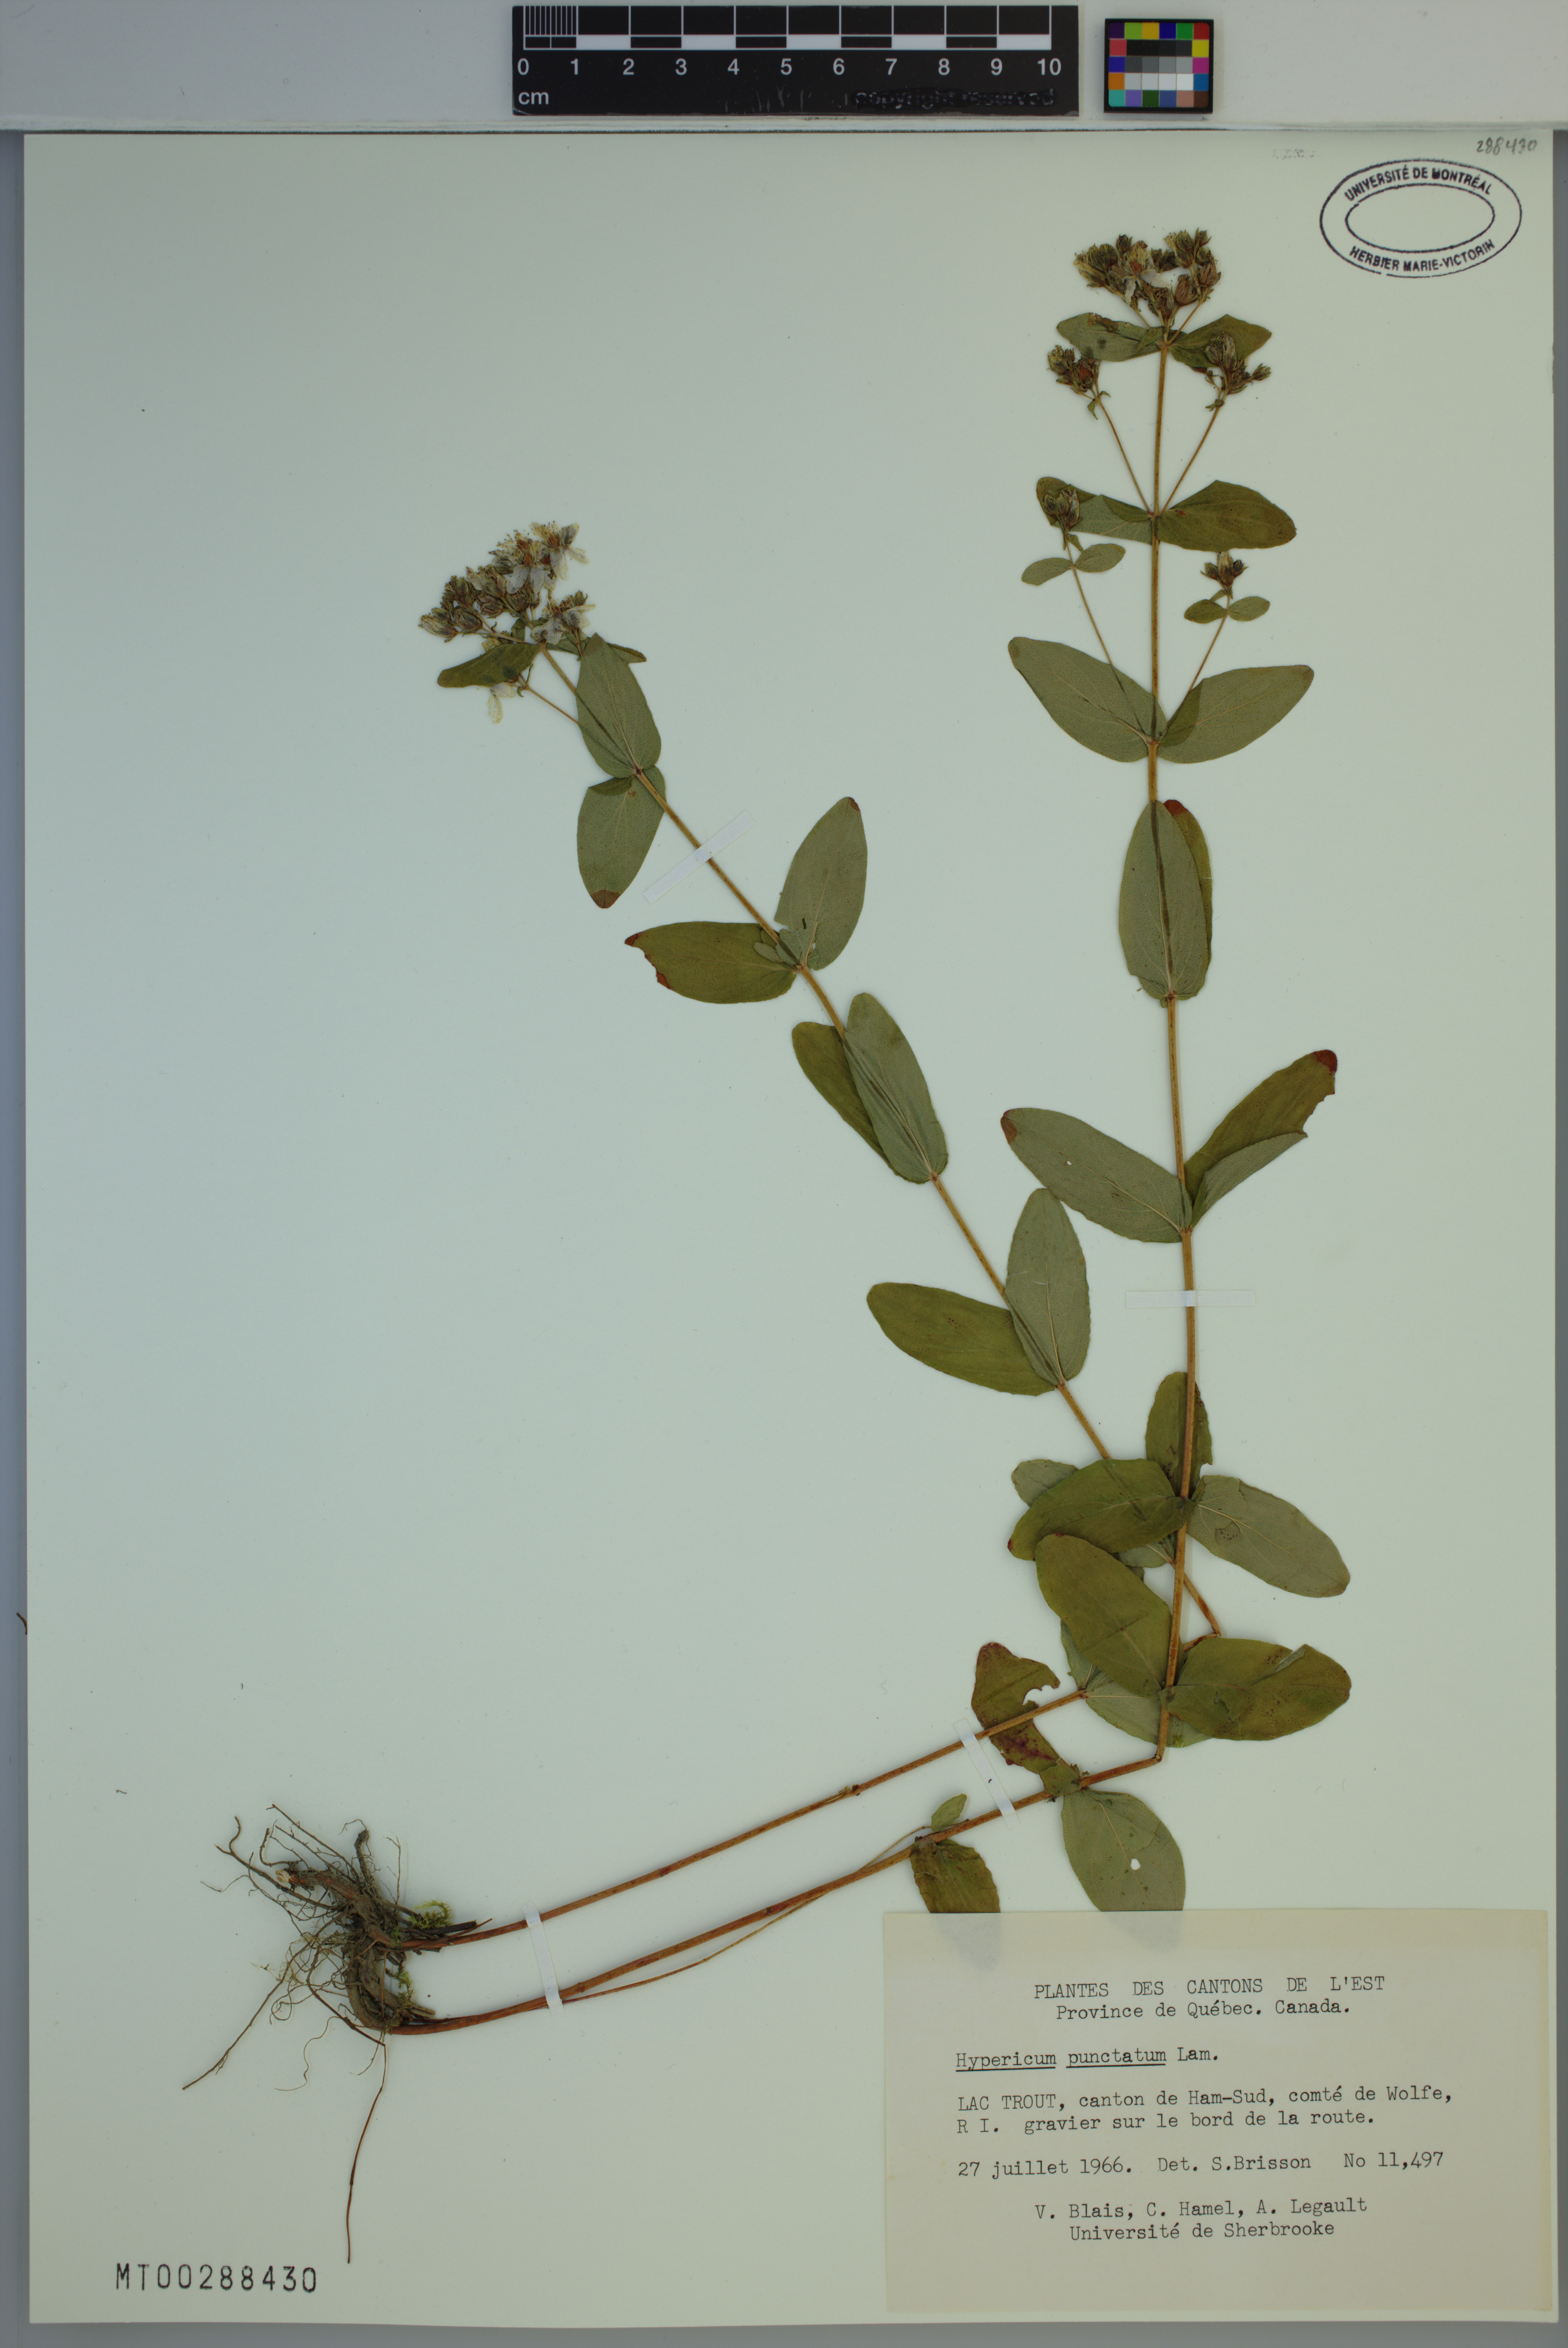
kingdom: Plantae
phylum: Tracheophyta
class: Magnoliopsida
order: Malpighiales
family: Hypericaceae
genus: Hypericum
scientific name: Hypericum punctatum
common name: Spotted st. john's-wort
